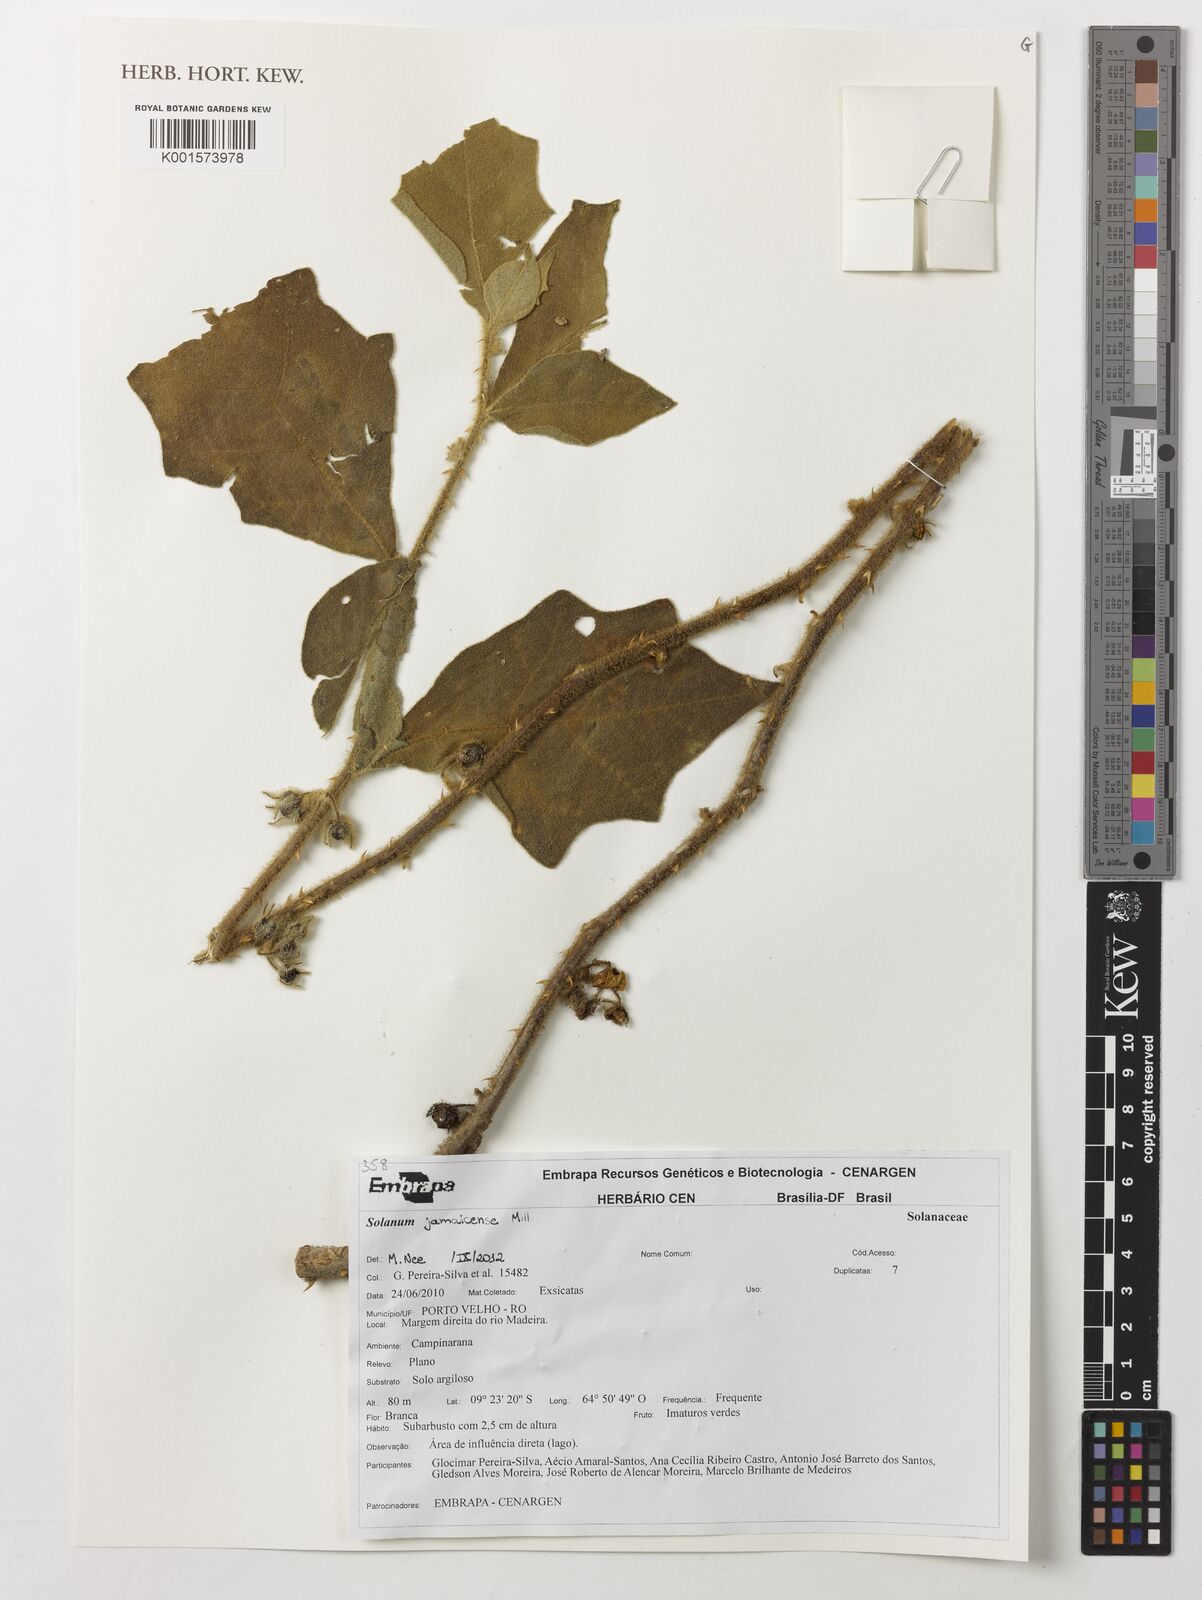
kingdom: Plantae
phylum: Tracheophyta
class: Magnoliopsida
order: Solanales
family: Solanaceae
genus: Solanum
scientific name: Solanum jamaicense
